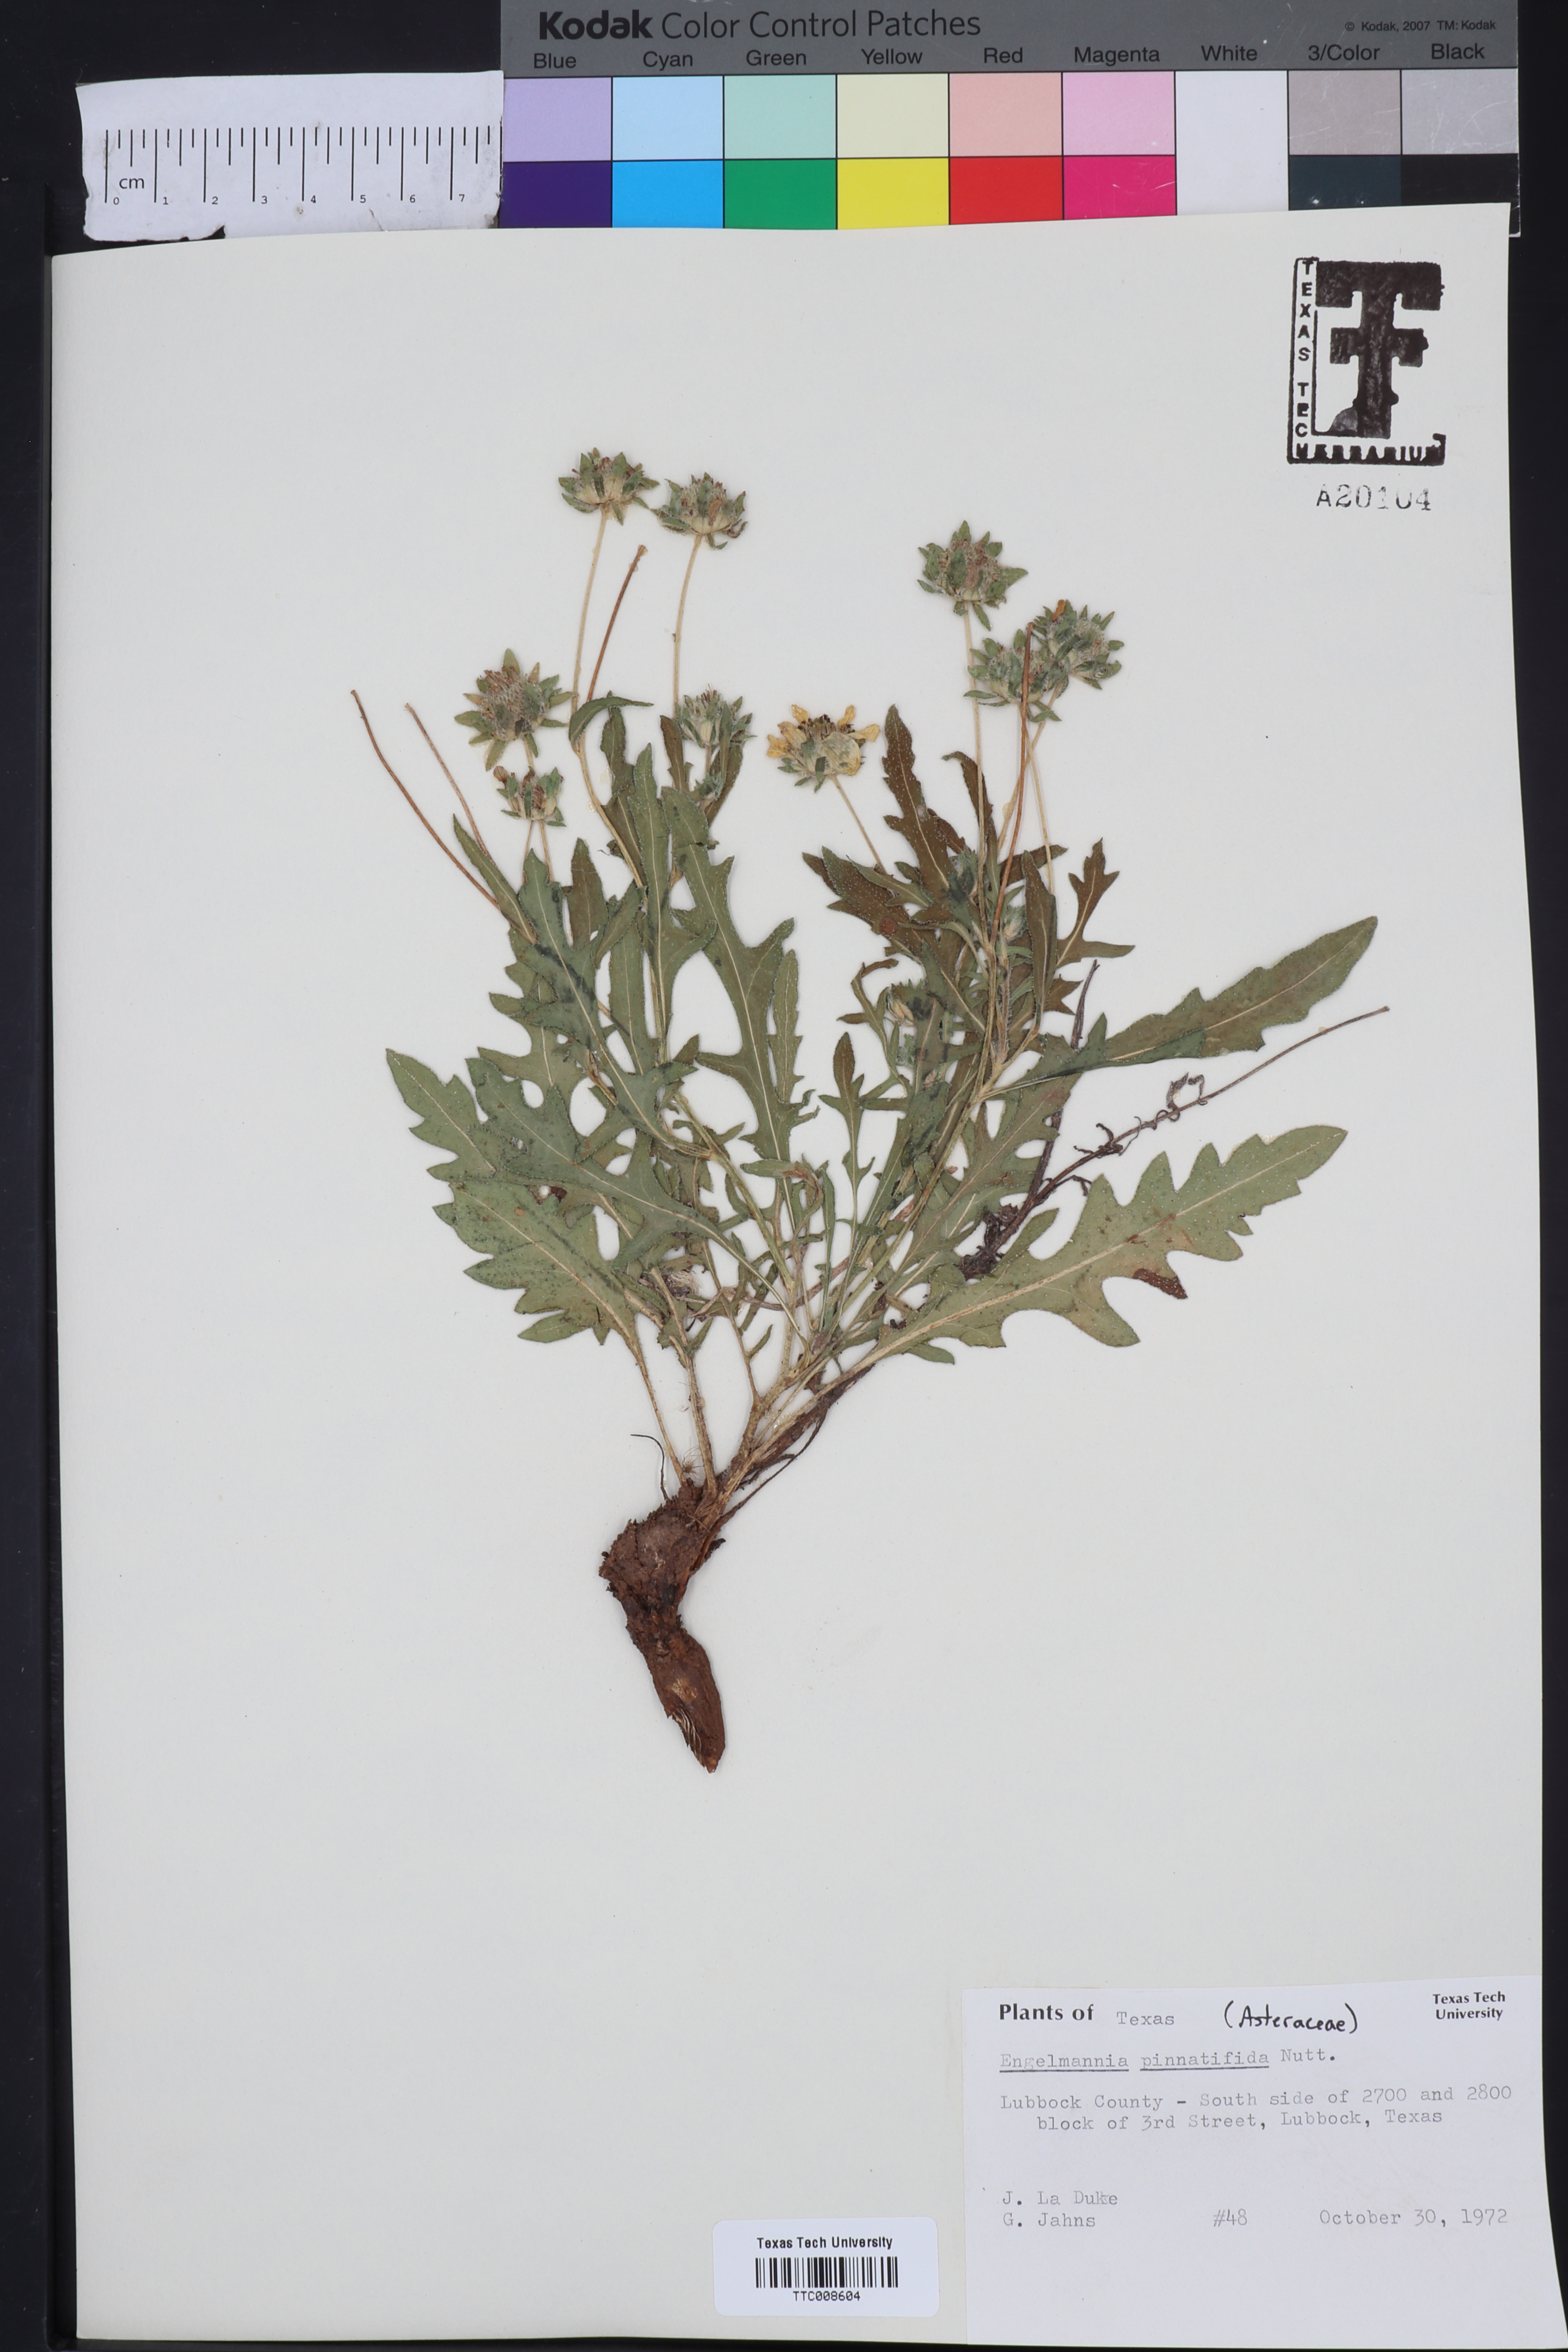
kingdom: Plantae
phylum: Tracheophyta
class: Magnoliopsida
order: Asterales
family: Asteraceae
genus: Engelmannia
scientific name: Engelmannia peristenia
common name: Engelmann's daisy
